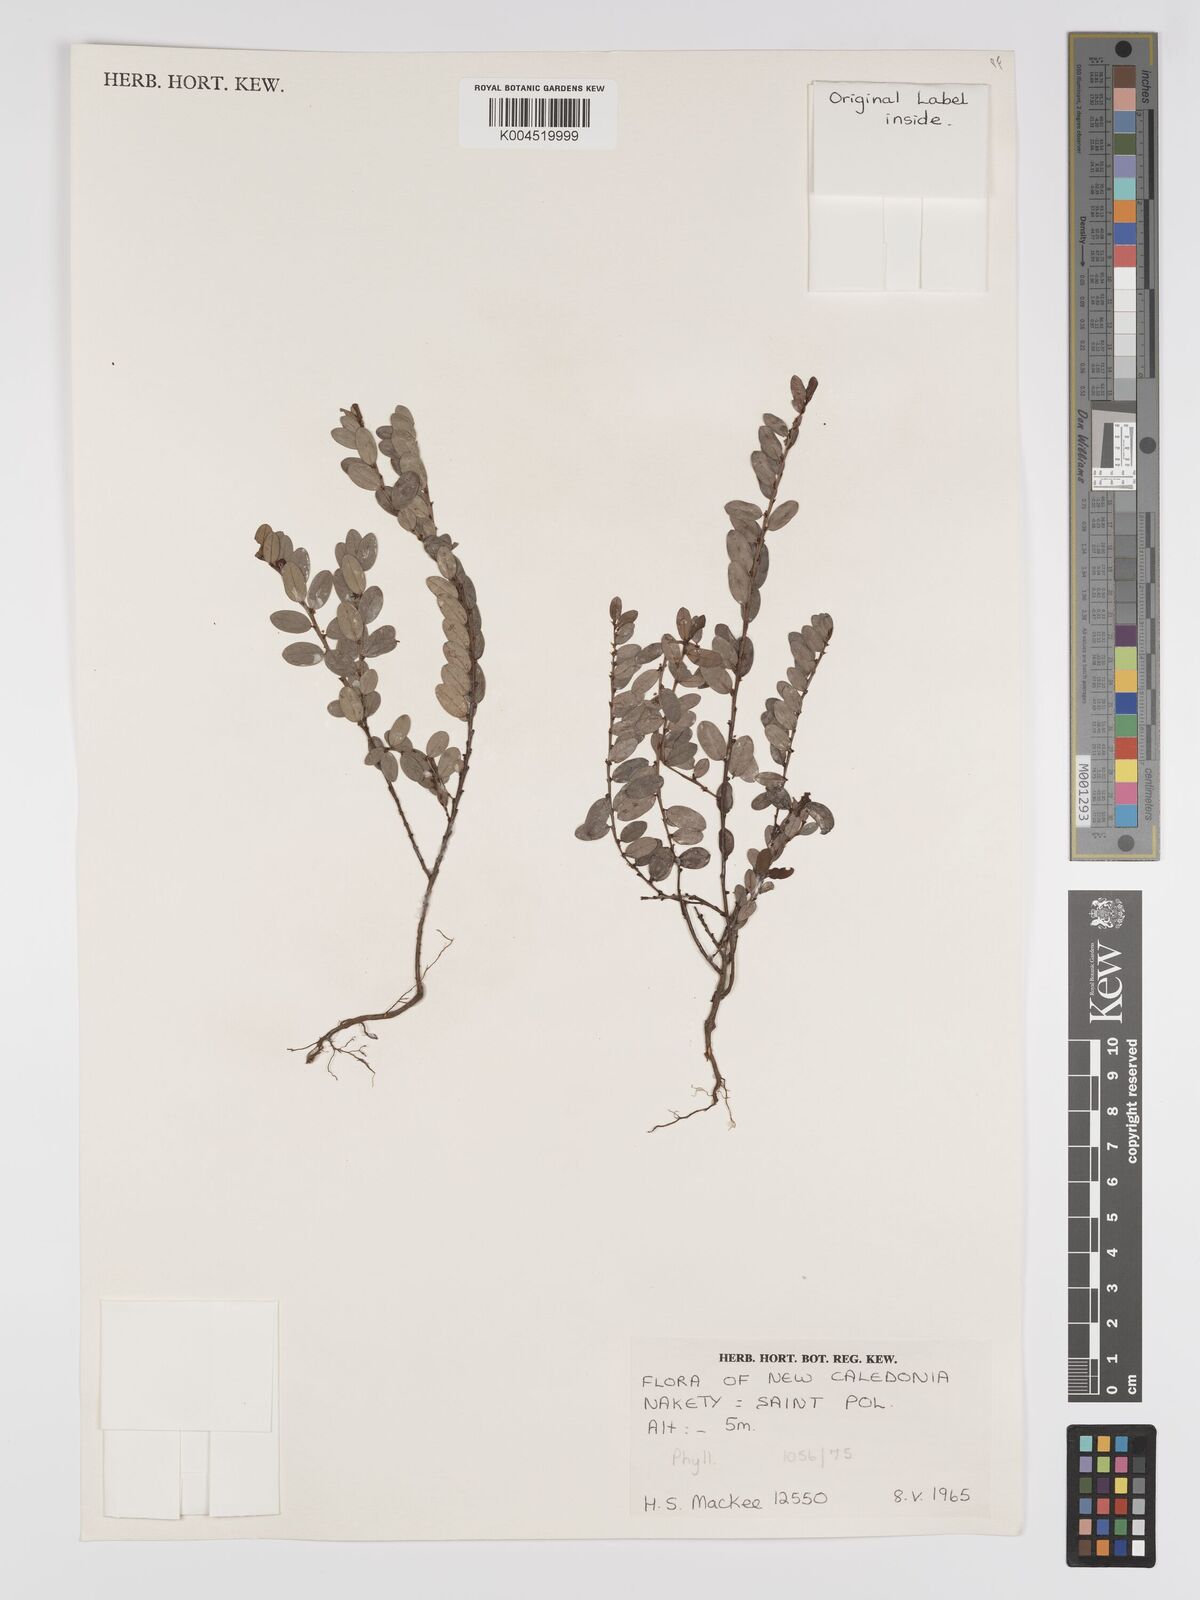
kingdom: Plantae
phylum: Tracheophyta
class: Magnoliopsida
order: Malpighiales
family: Phyllanthaceae
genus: Phyllanthus
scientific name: Phyllanthus
